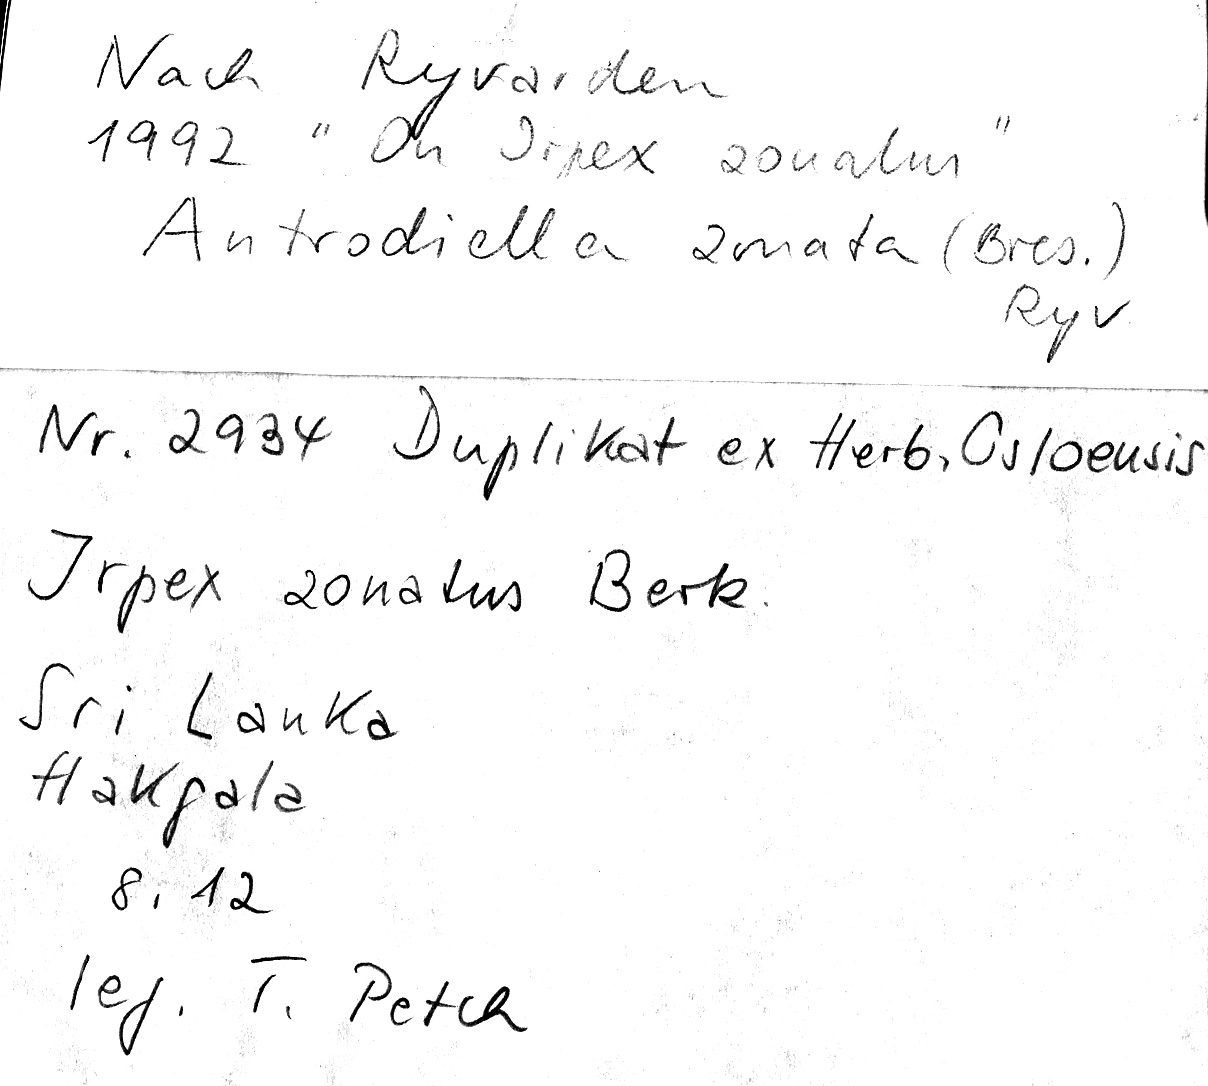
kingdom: Fungi
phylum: Basidiomycota
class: Agaricomycetes
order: Polyporales
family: Cerrenaceae
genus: Cerrena
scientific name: Cerrena zonata
